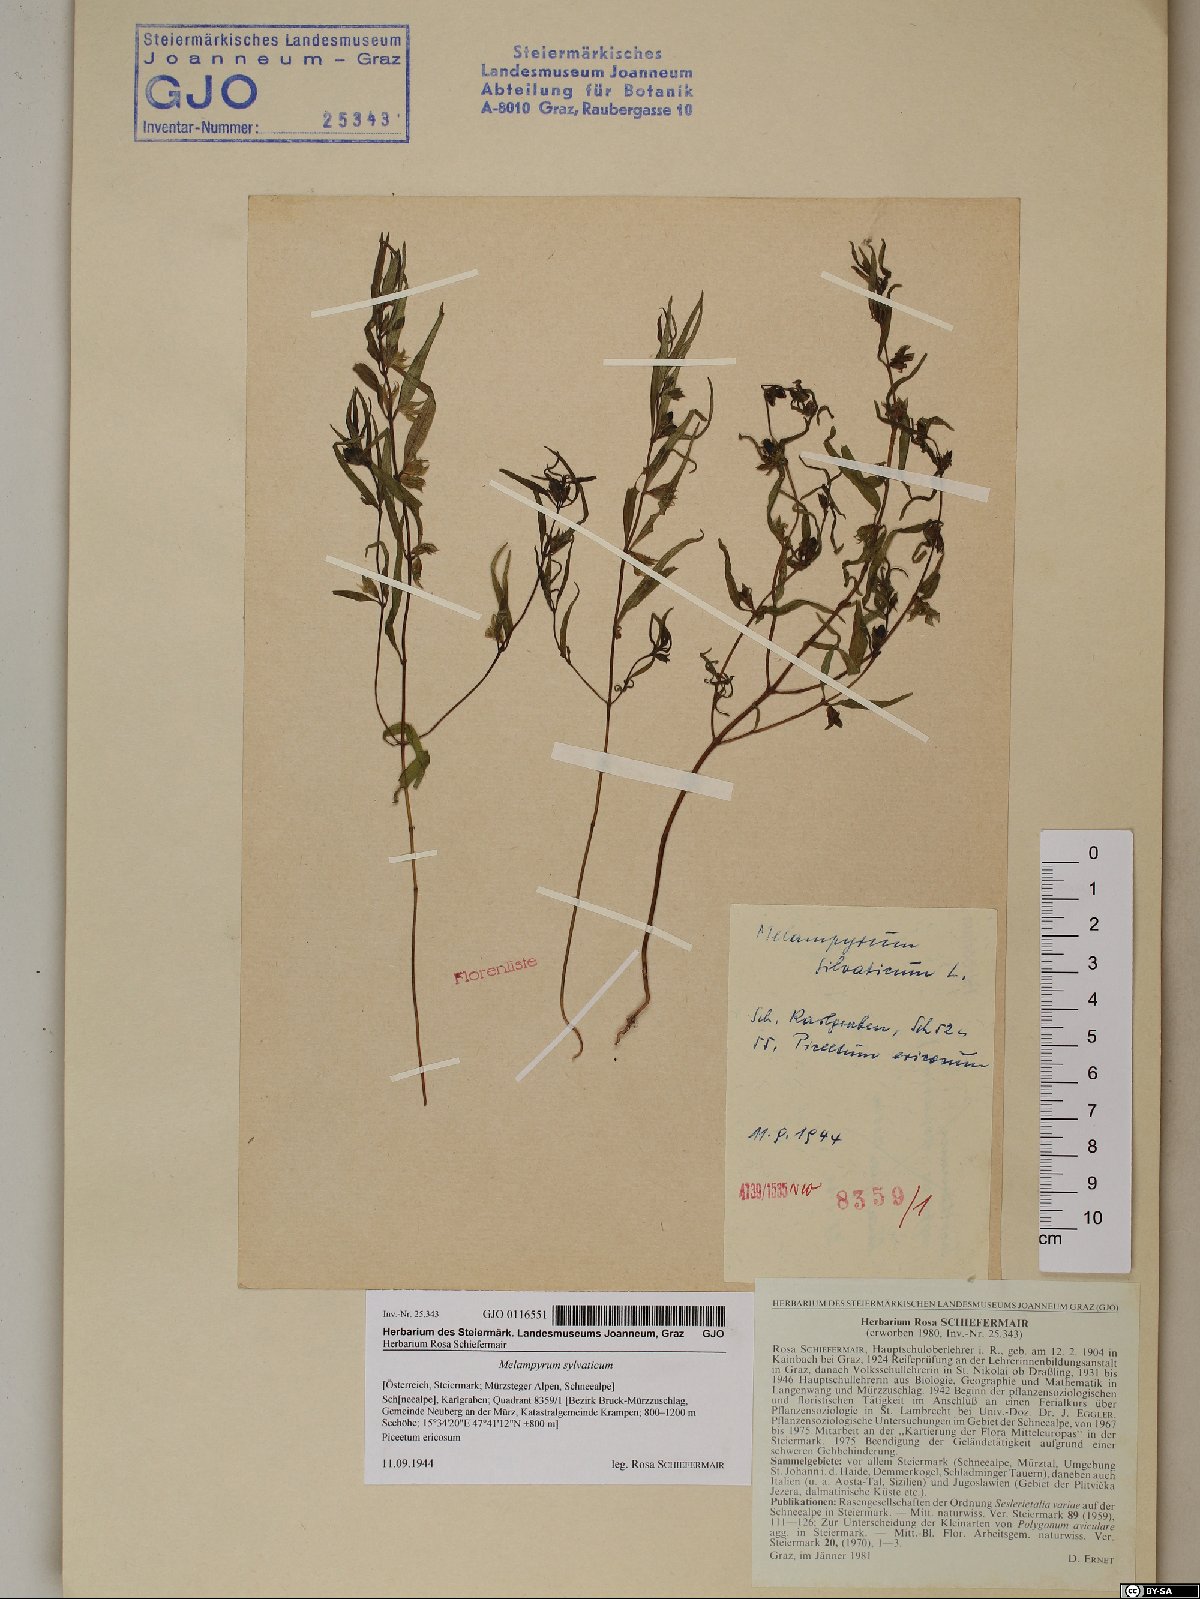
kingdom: Plantae
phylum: Tracheophyta
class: Magnoliopsida
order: Lamiales
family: Orobanchaceae
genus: Melampyrum
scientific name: Melampyrum sylvaticum
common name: Small cow-wheat
